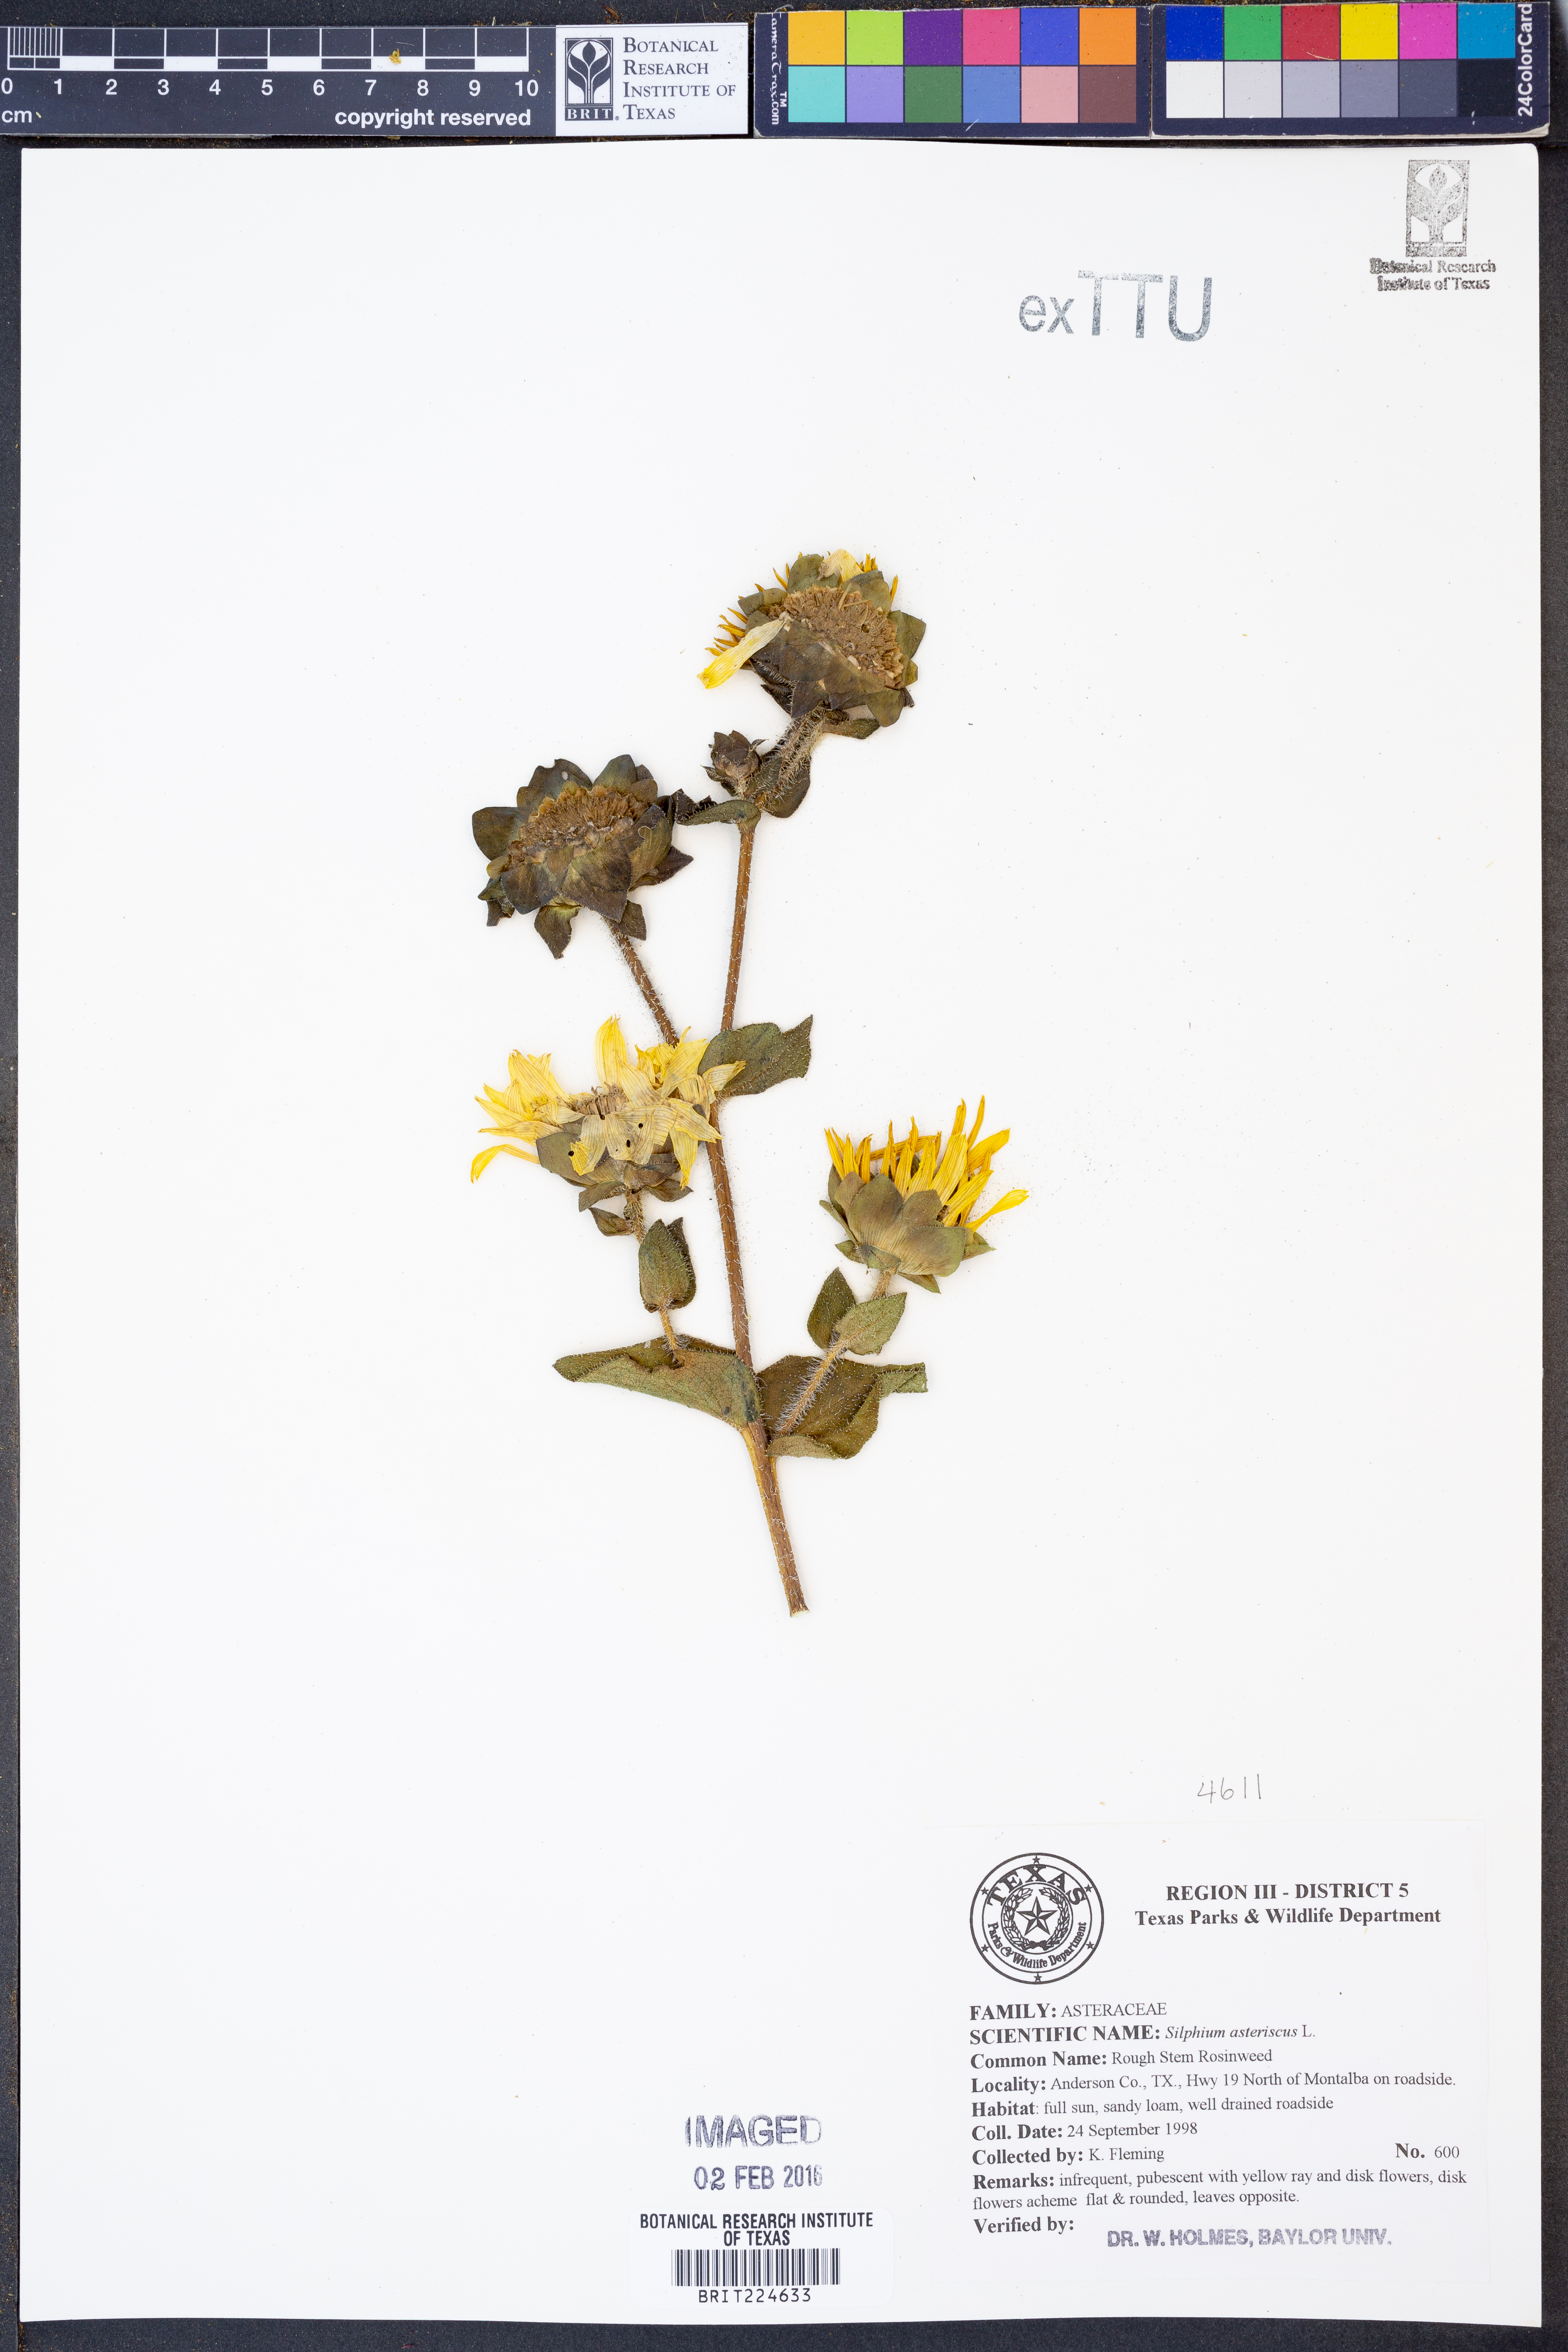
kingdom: Plantae
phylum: Tracheophyta
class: Magnoliopsida
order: Asterales
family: Asteraceae
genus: Silphium
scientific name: Silphium asteriscus
